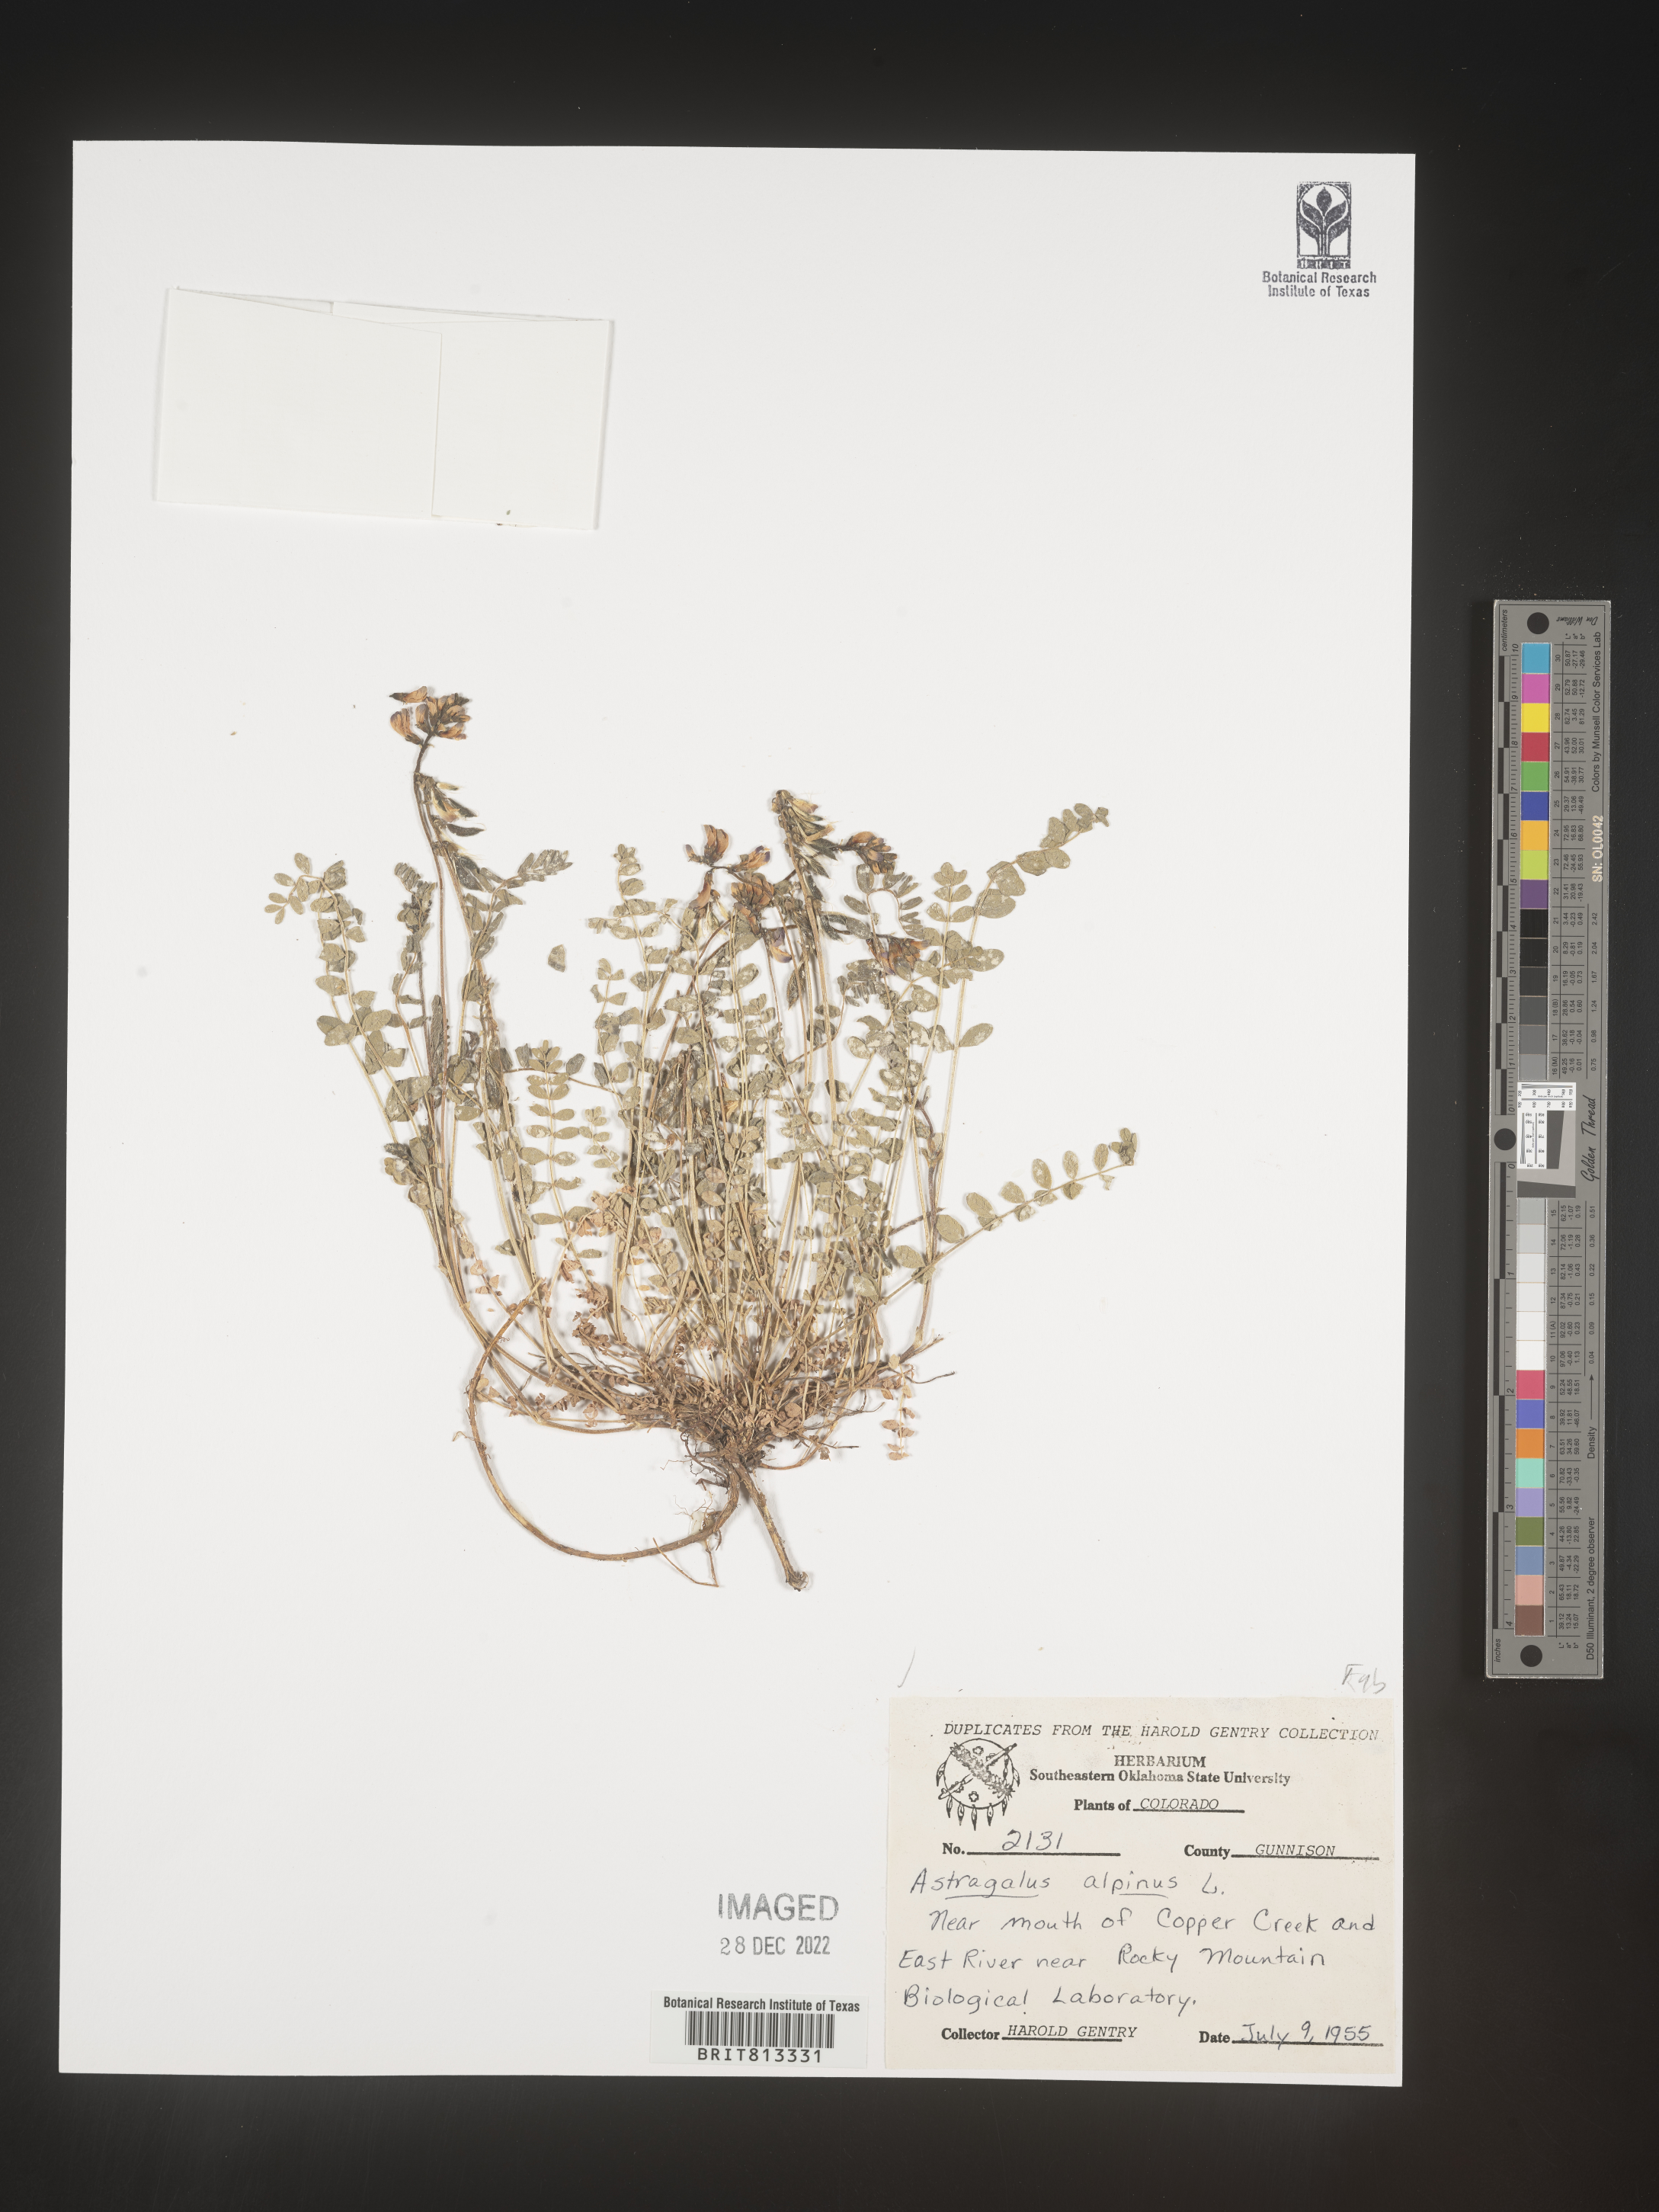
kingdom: Plantae
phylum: Tracheophyta
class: Magnoliopsida
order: Fabales
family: Fabaceae
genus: Astragalus
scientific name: Astragalus alpinus
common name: Alpine milk-vetch
